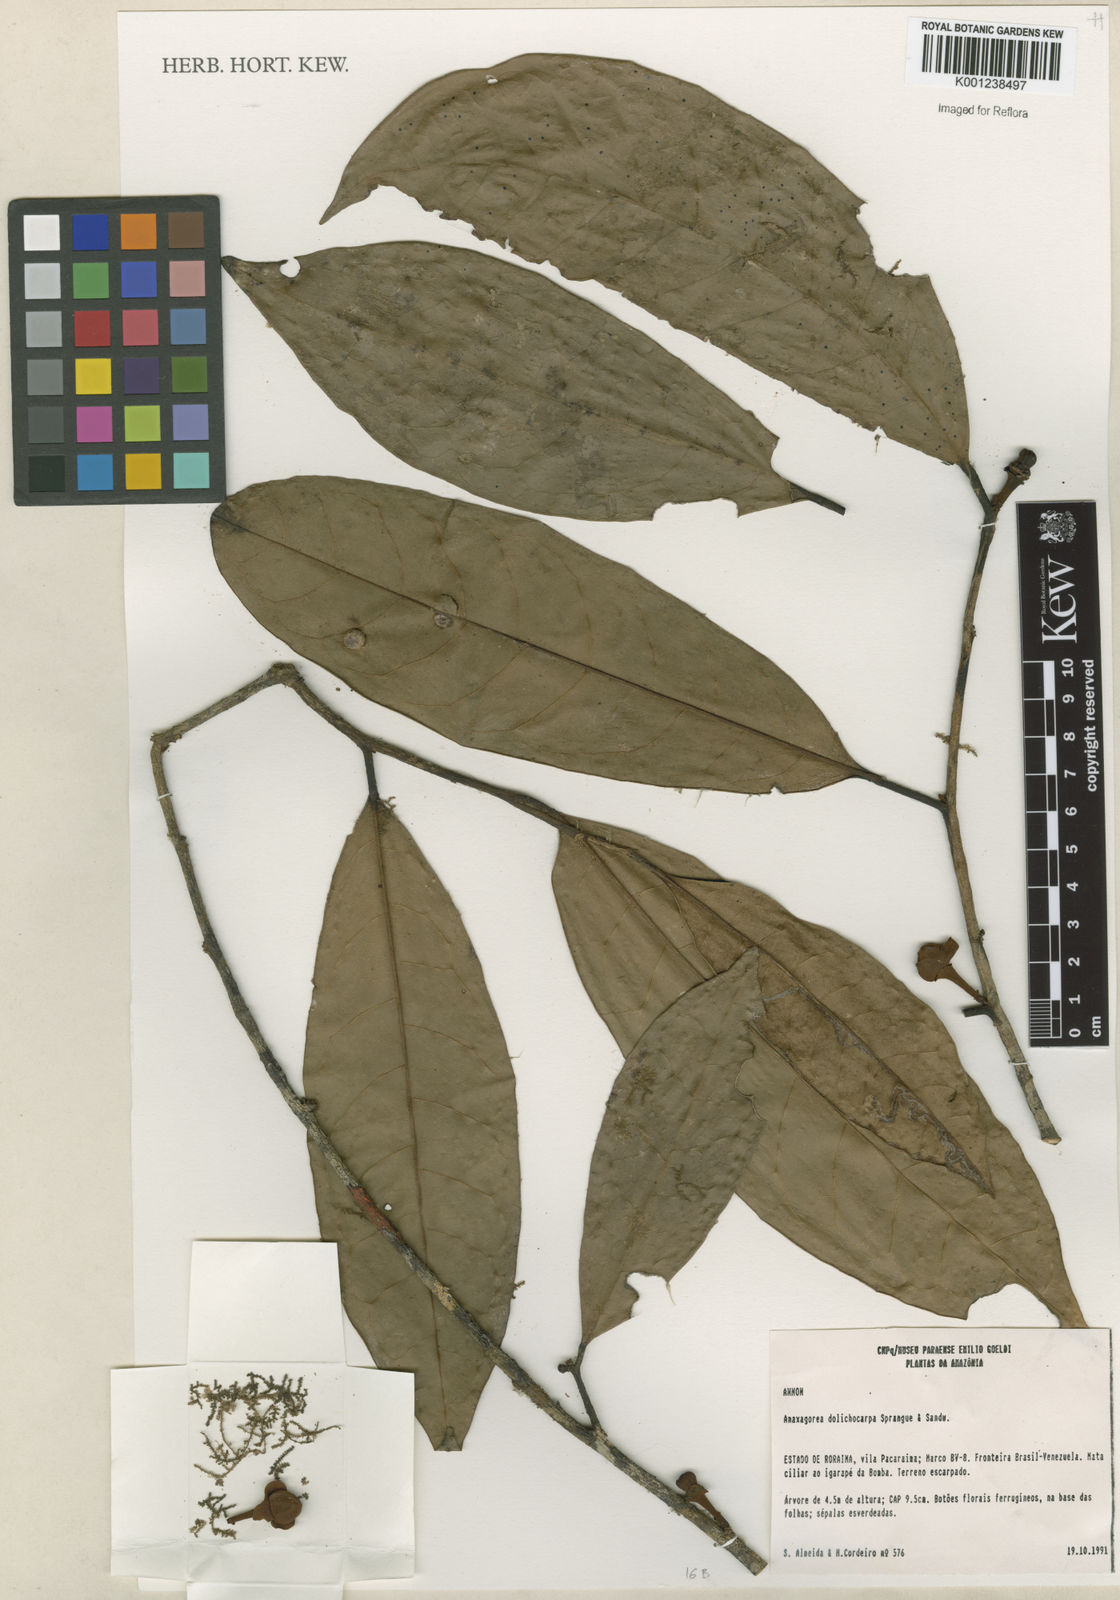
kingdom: Plantae
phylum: Tracheophyta
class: Magnoliopsida
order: Magnoliales
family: Annonaceae
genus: Anaxagorea
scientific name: Anaxagorea dolichocarpa
